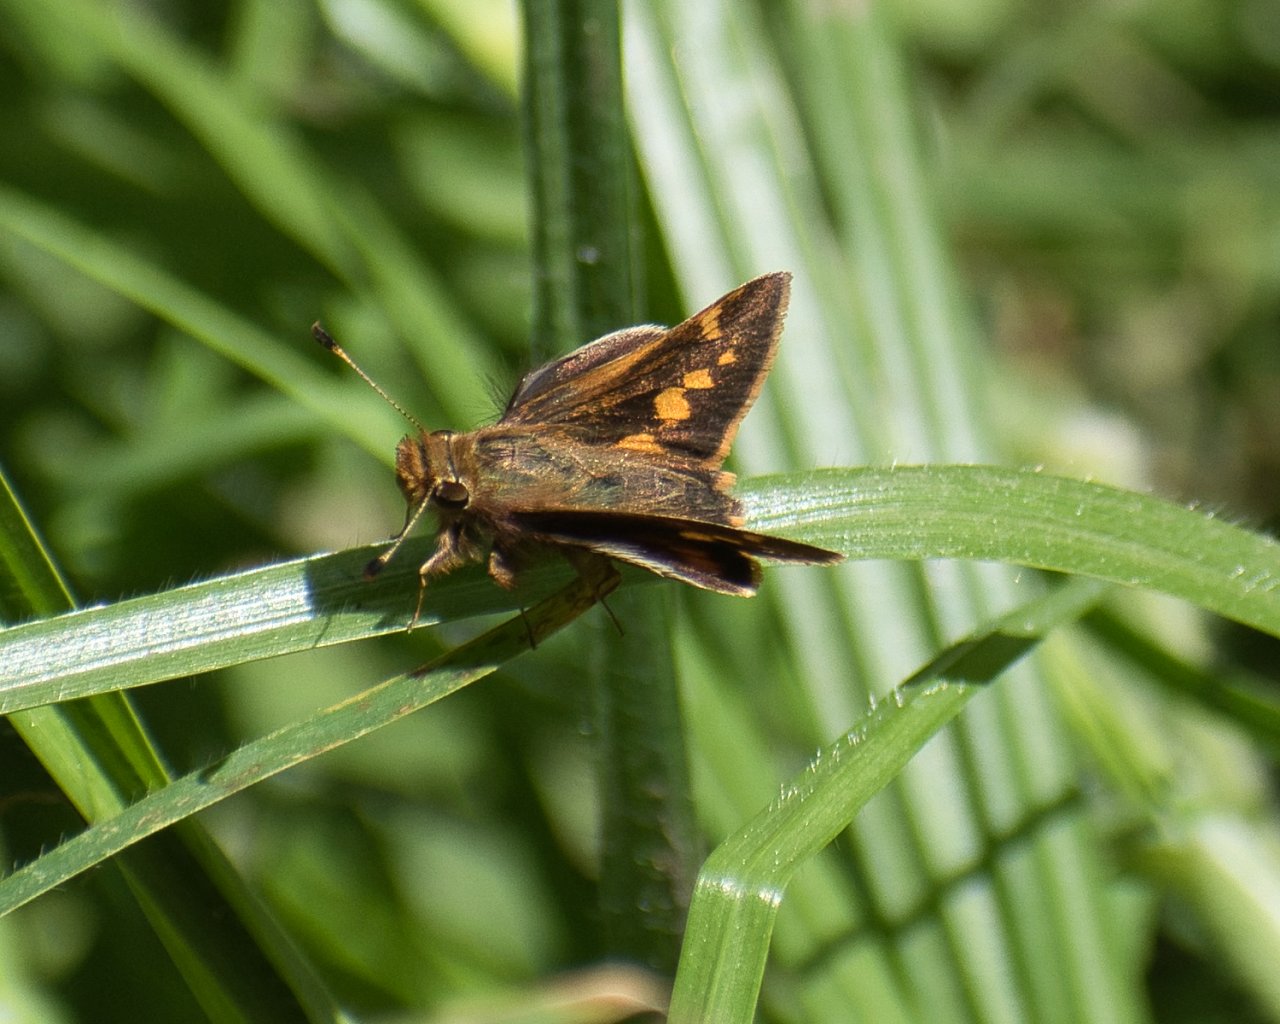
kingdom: Animalia
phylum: Arthropoda
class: Insecta
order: Lepidoptera
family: Hesperiidae
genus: Lon
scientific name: Lon melane
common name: Umber Skipper
